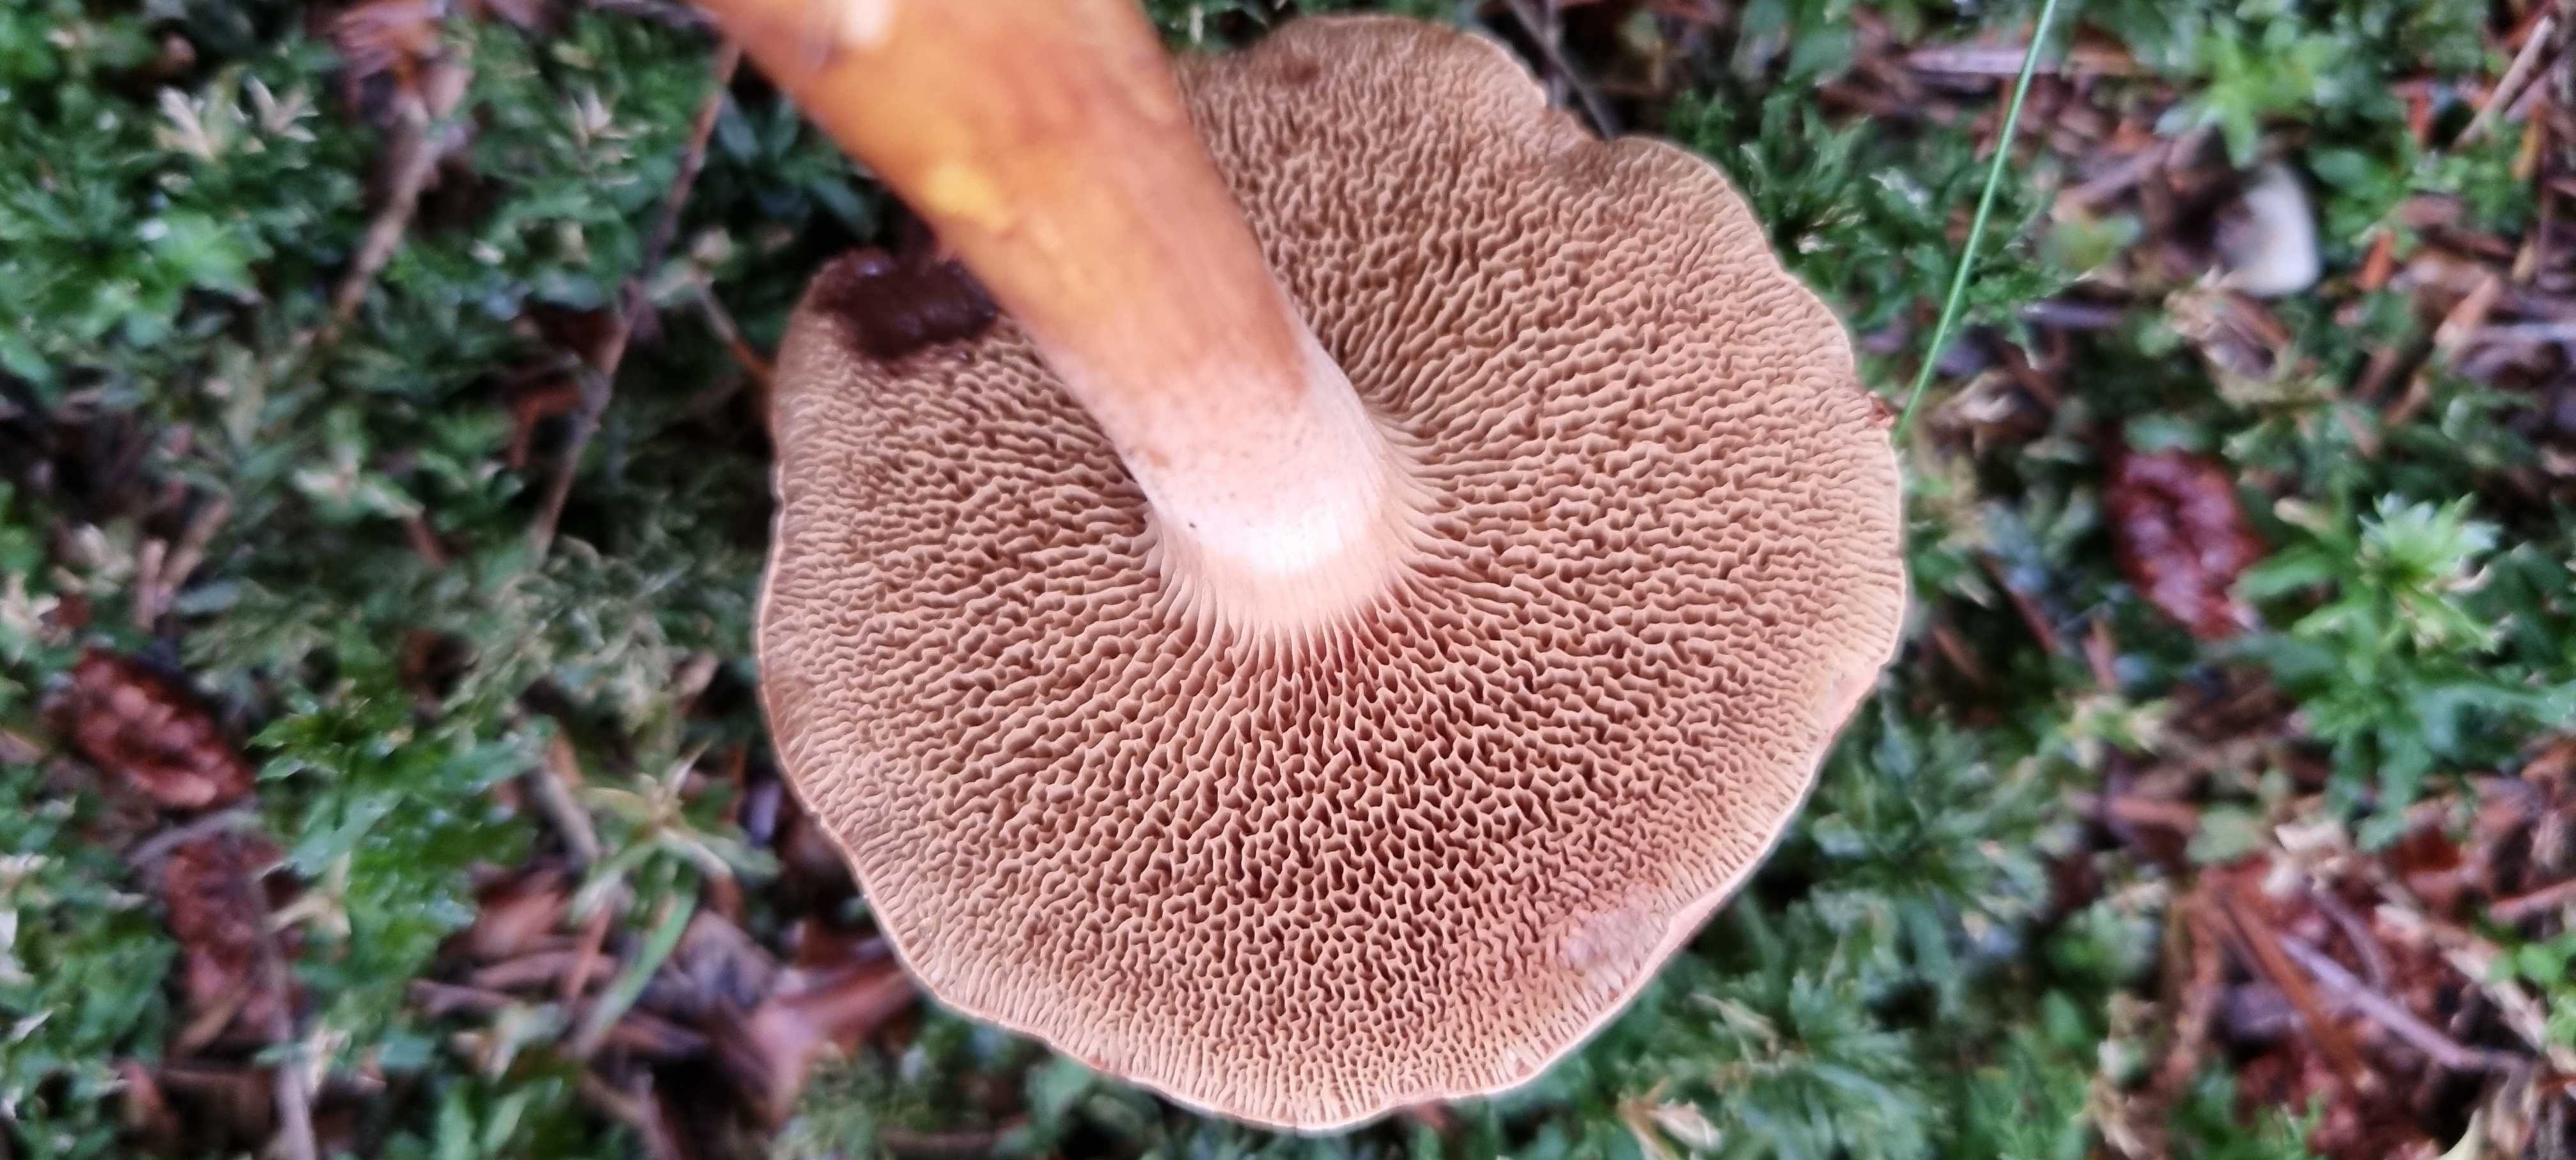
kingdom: Fungi
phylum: Basidiomycota
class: Agaricomycetes
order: Boletales
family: Boletaceae
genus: Chalciporus
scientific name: Chalciporus piperatus
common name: peberrørhat
